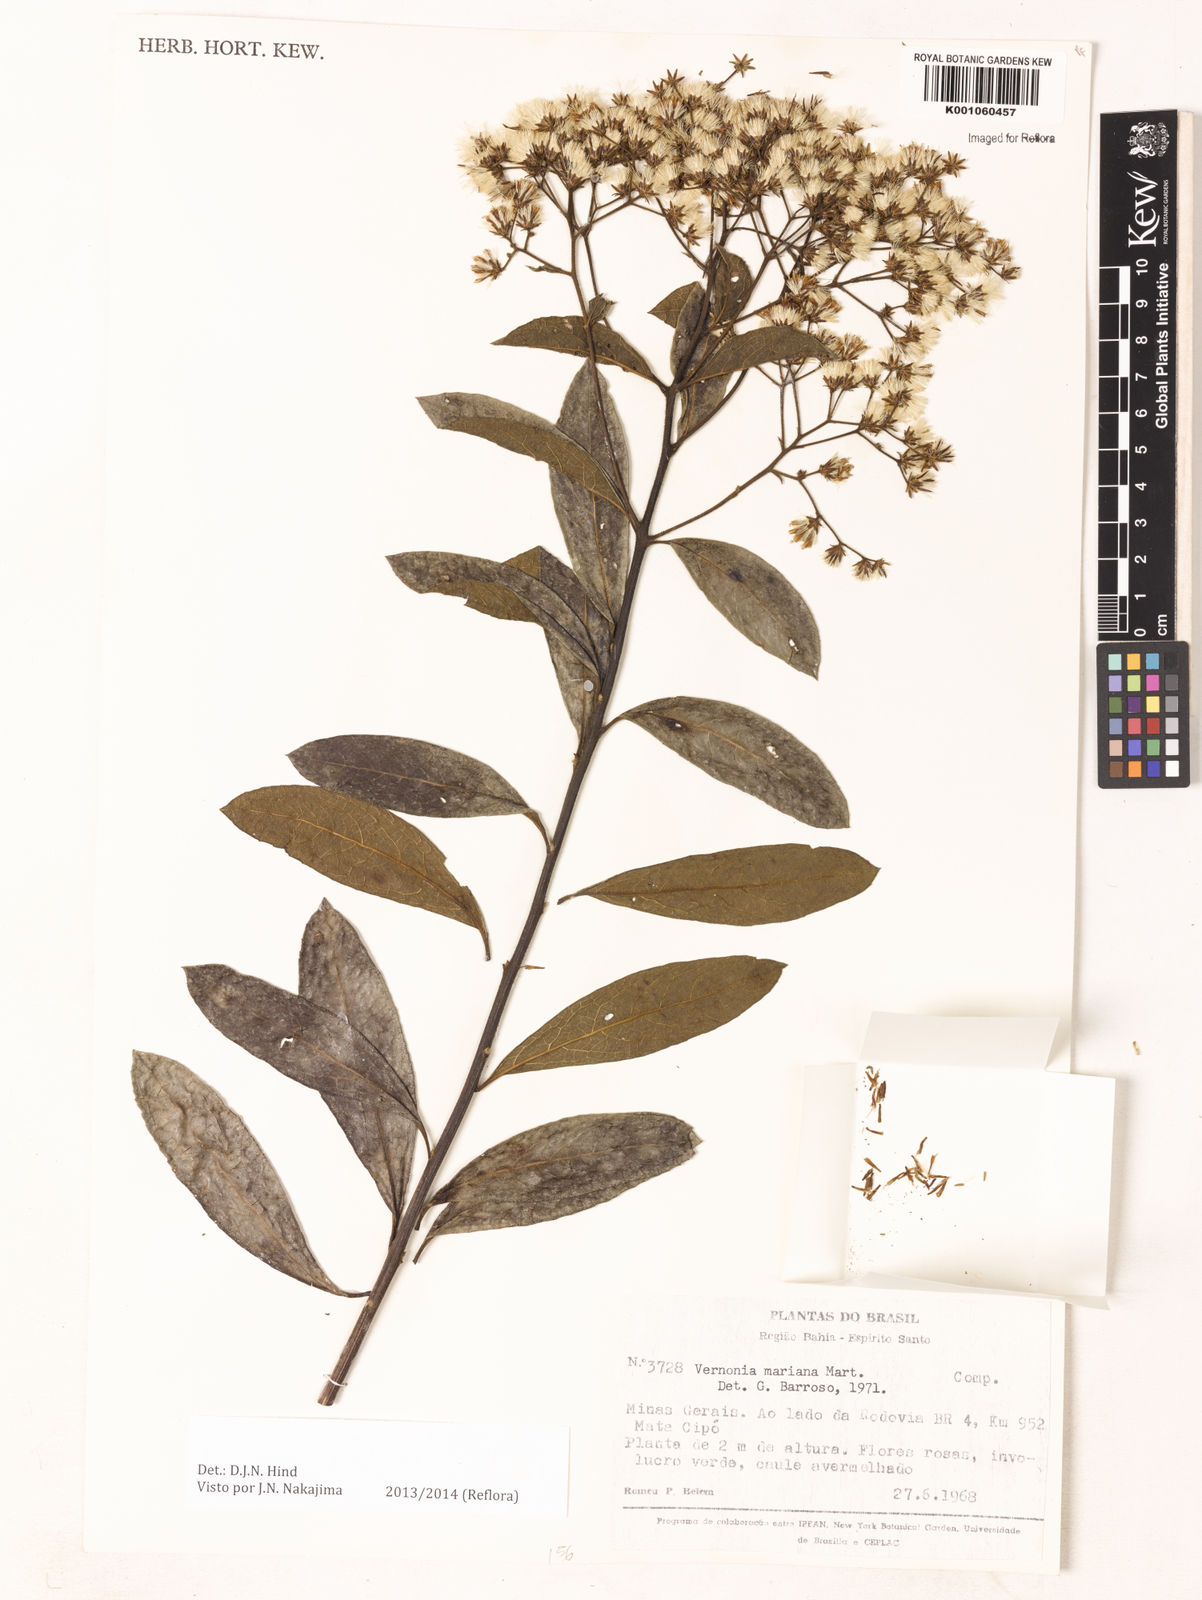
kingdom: Plantae
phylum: Tracheophyta
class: Magnoliopsida
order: Asterales
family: Asteraceae
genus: Vernonanthura
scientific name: Vernonanthura cymosa
